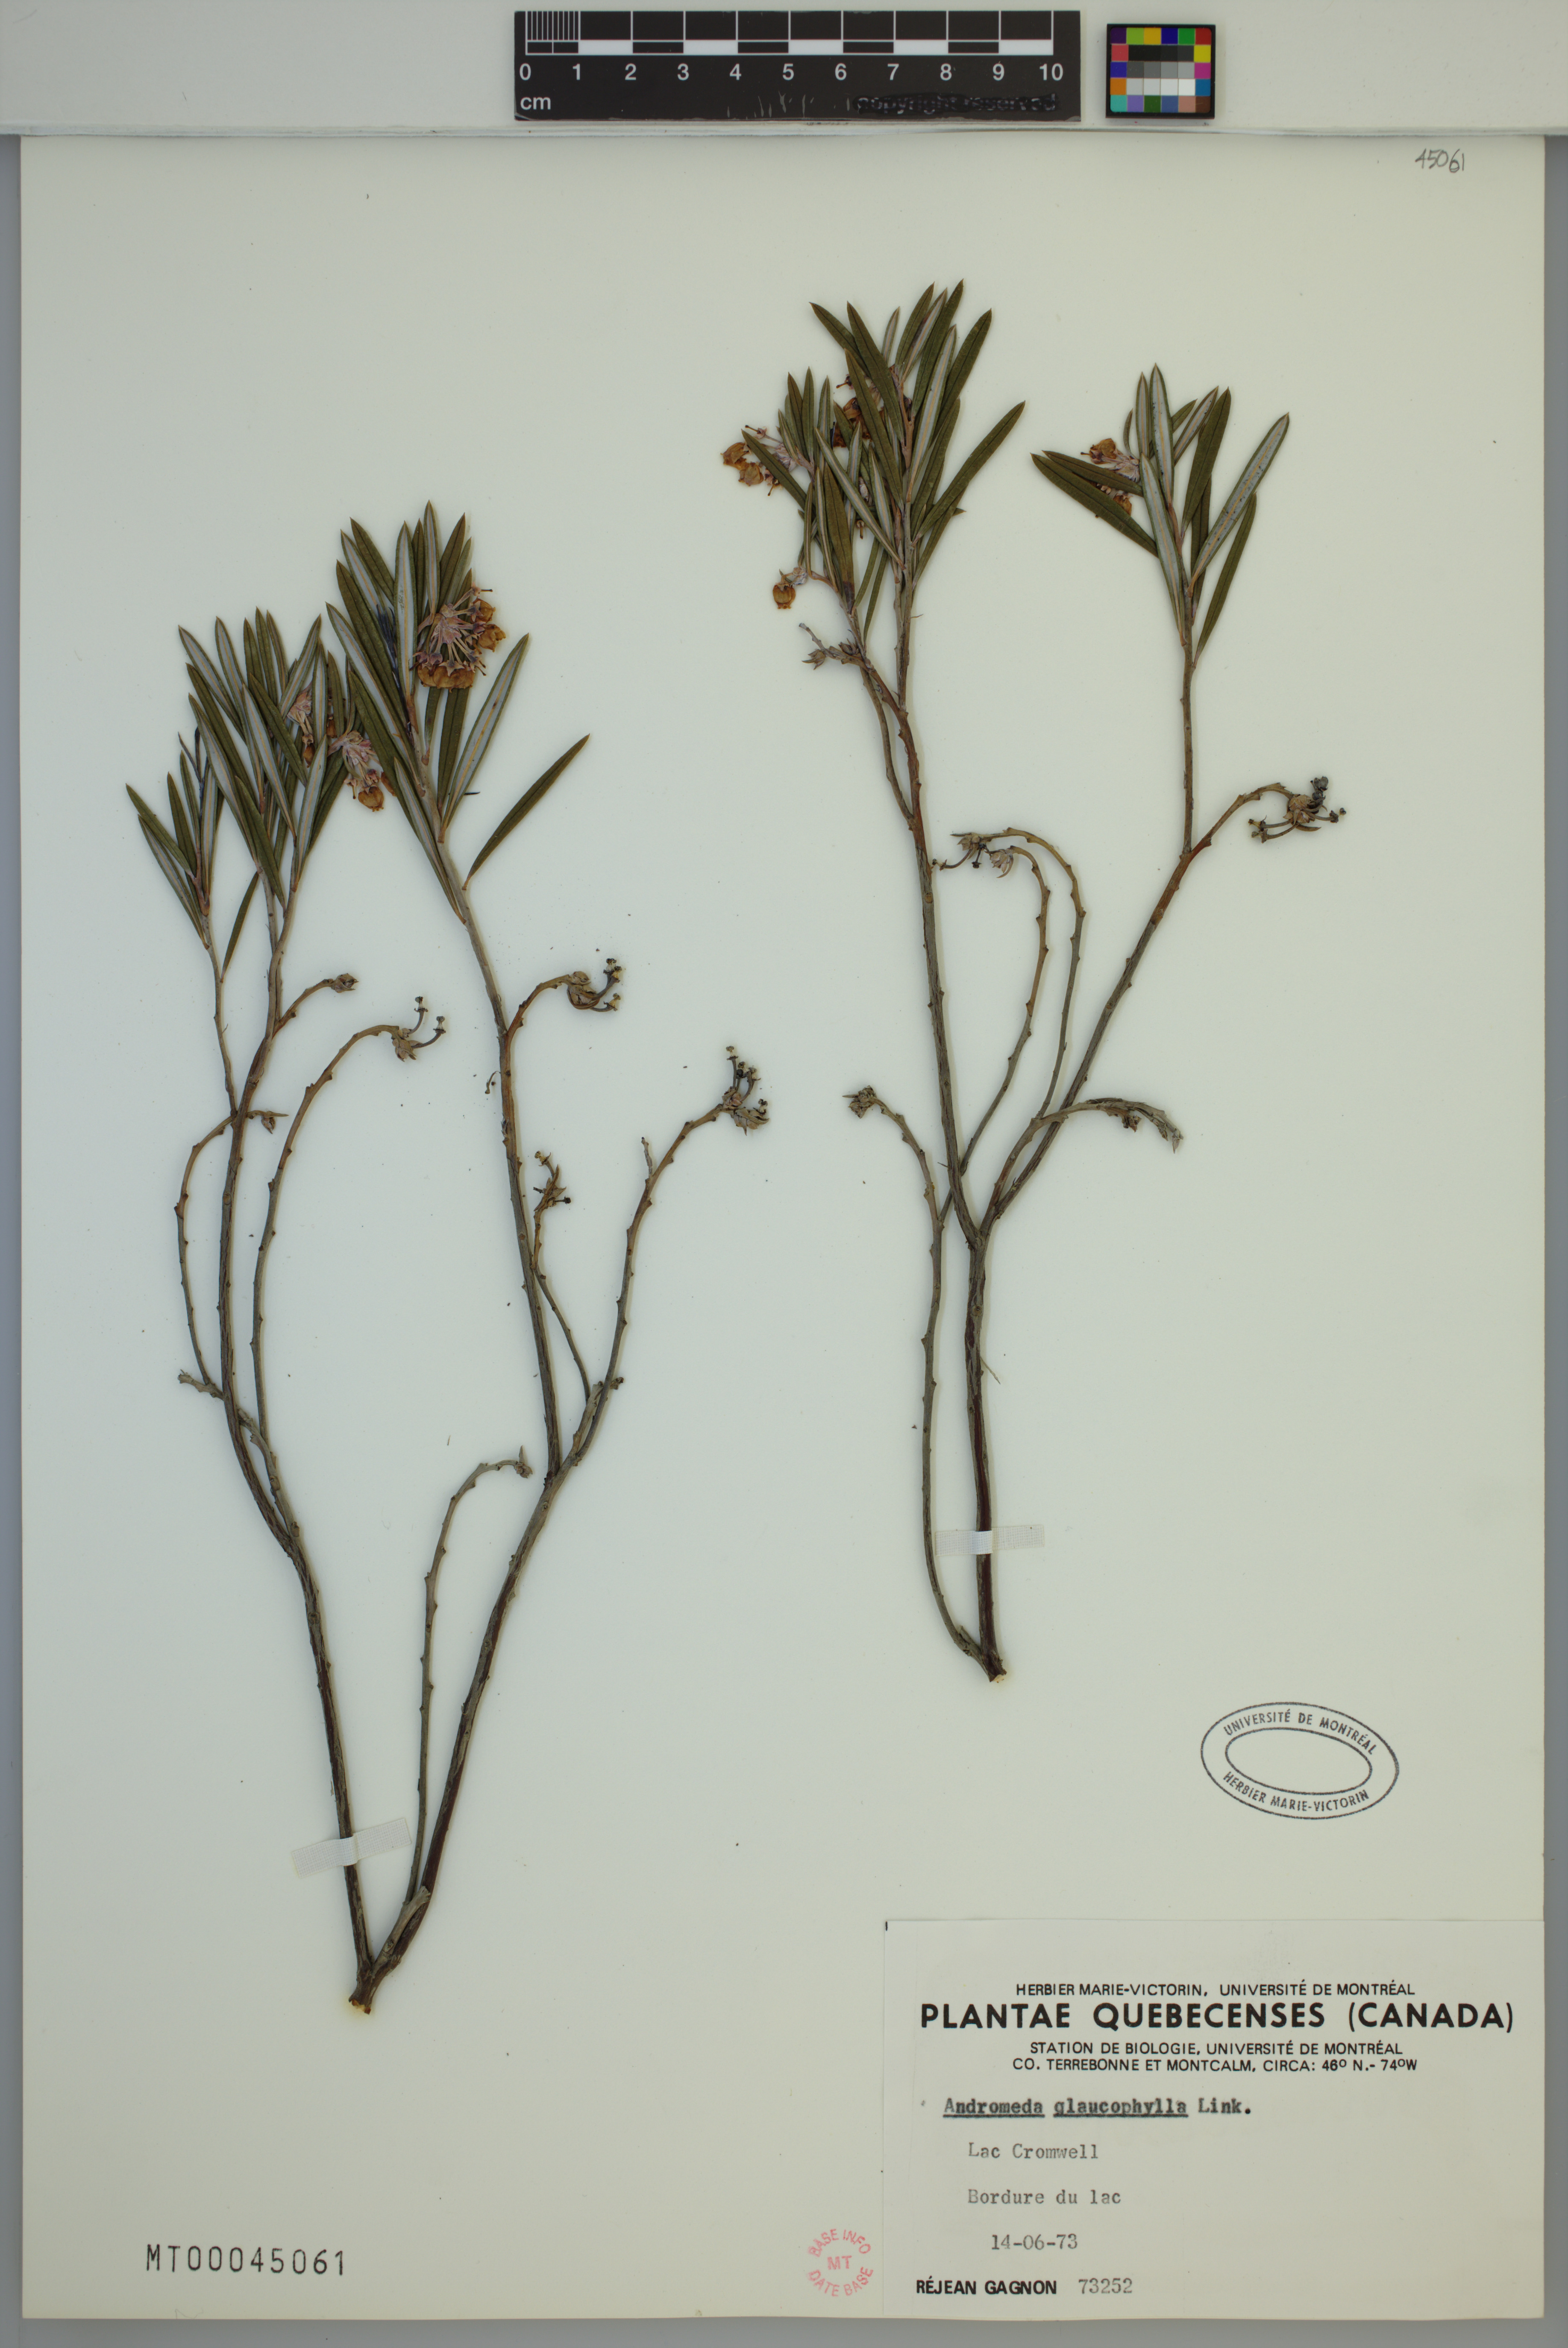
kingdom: Plantae
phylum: Tracheophyta
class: Magnoliopsida
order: Ericales
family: Ericaceae
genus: Andromeda
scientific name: Andromeda polifolia
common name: Bog-rosemary
